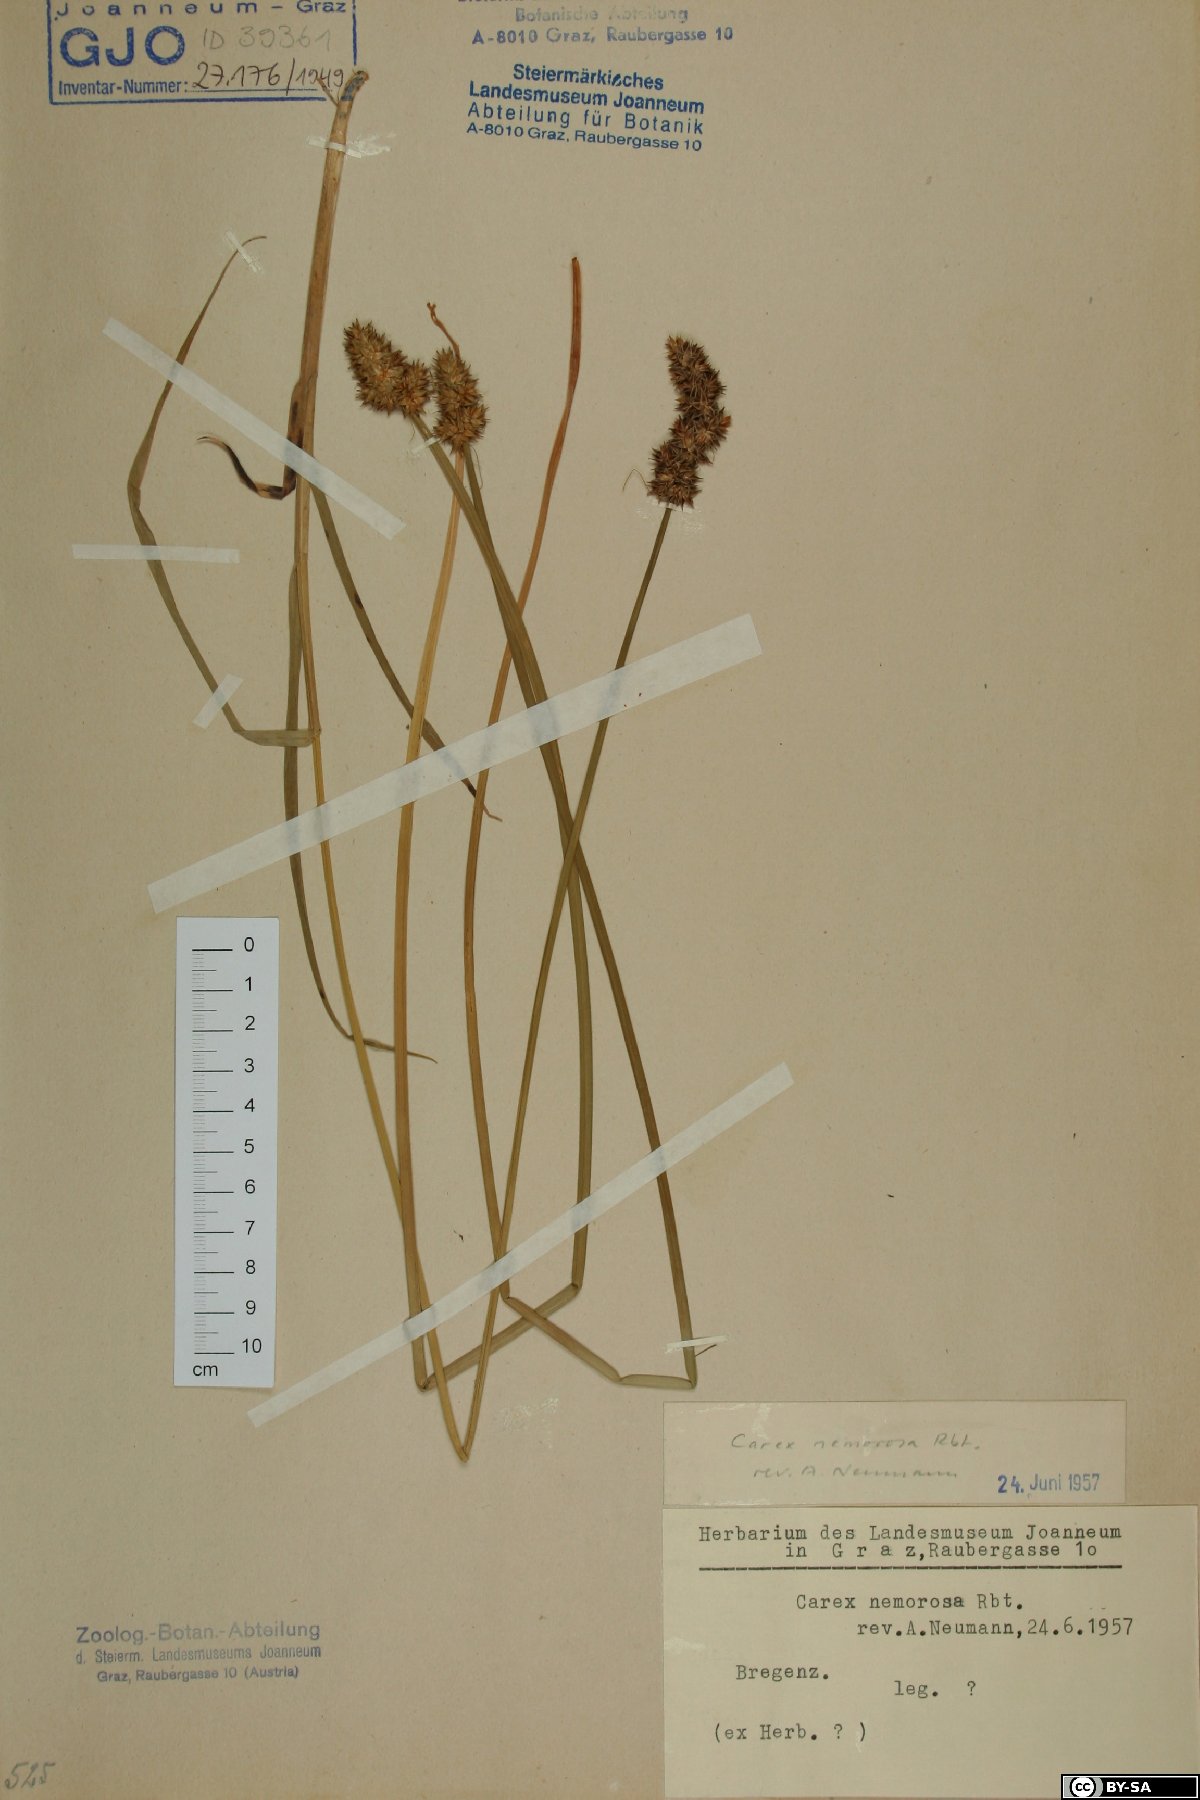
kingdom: Plantae
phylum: Tracheophyta
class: Liliopsida
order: Poales
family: Cyperaceae
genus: Carex
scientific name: Carex otrubae
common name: False fox-sedge
